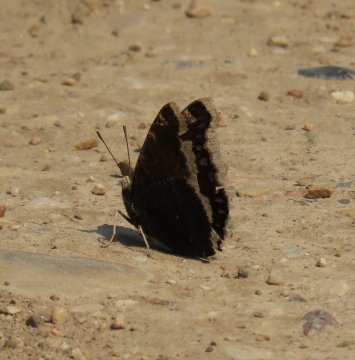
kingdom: Animalia
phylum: Arthropoda
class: Insecta
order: Lepidoptera
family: Nymphalidae
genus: Nymphalis
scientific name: Nymphalis antiopa
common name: Mourning Cloak
